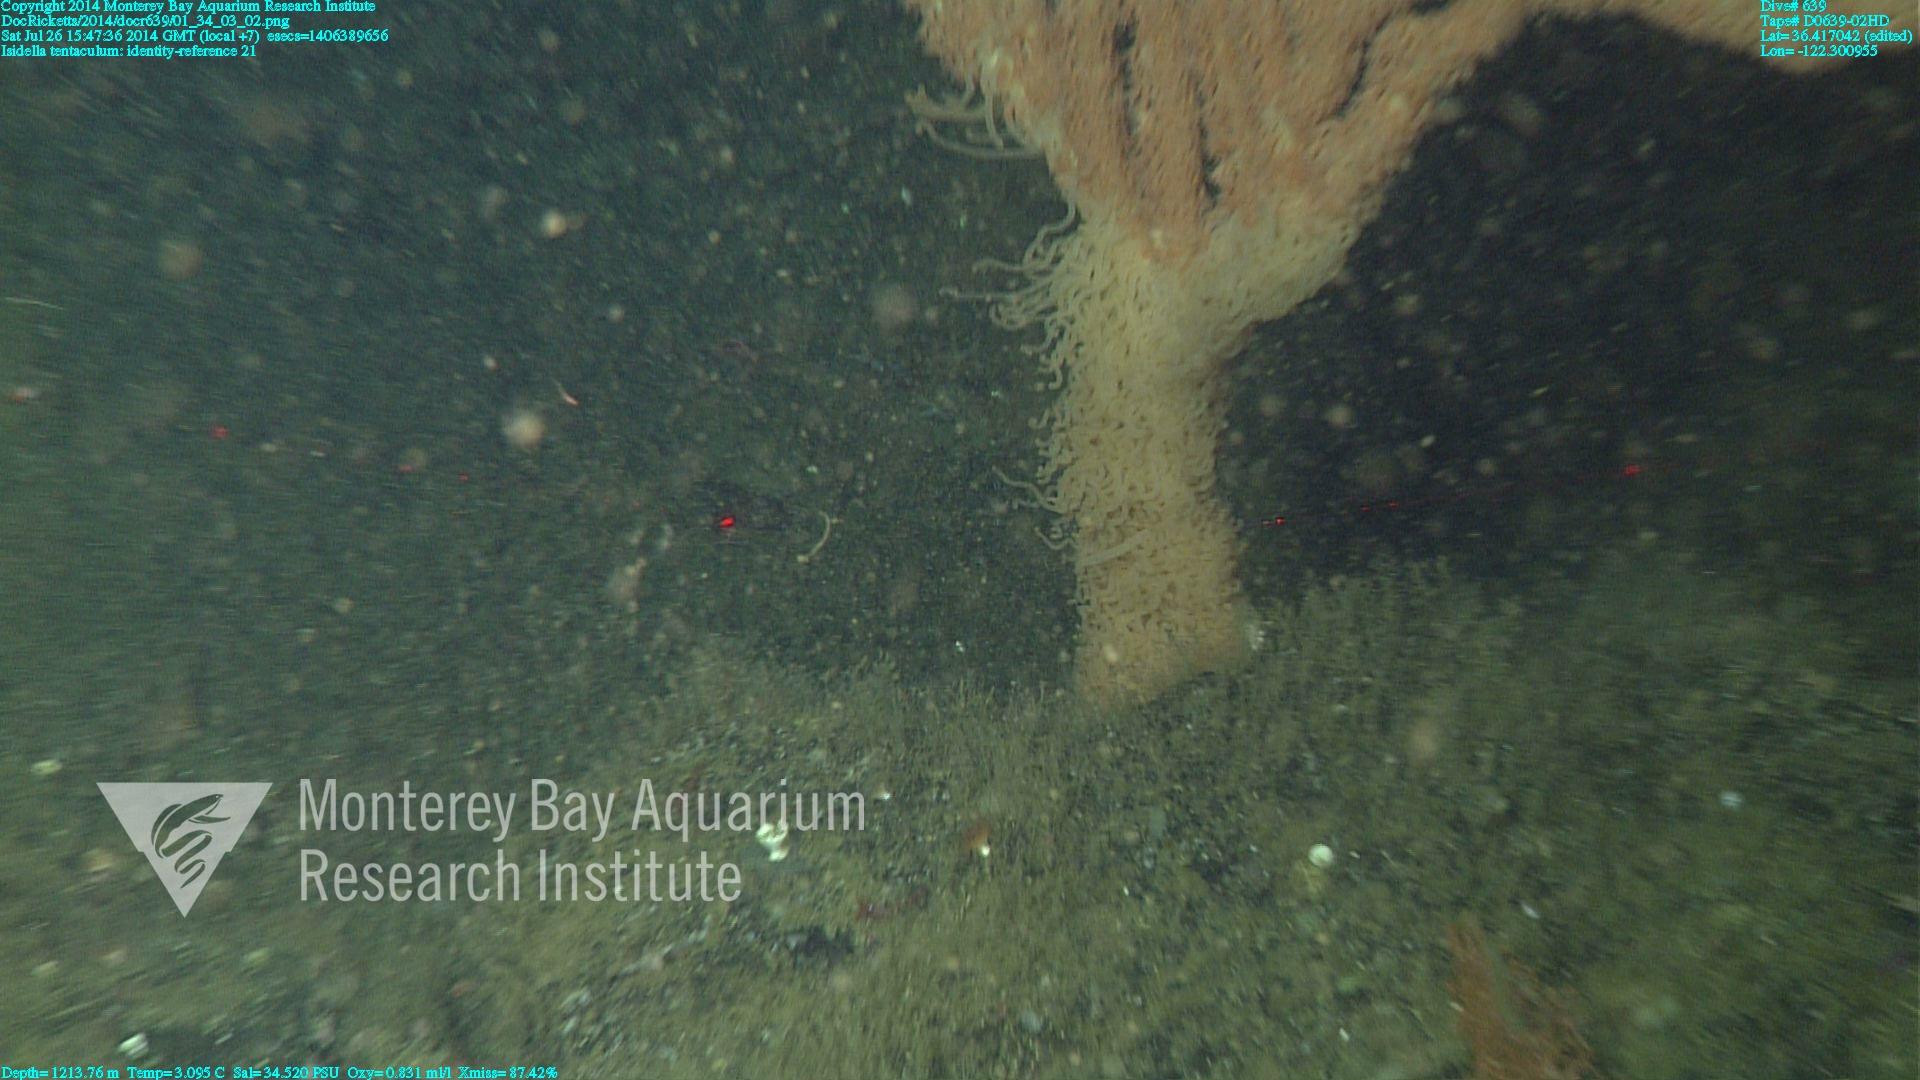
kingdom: Animalia
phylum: Cnidaria
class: Anthozoa
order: Scleralcyonacea
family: Keratoisididae
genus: Isidella
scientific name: Isidella tentaculum
